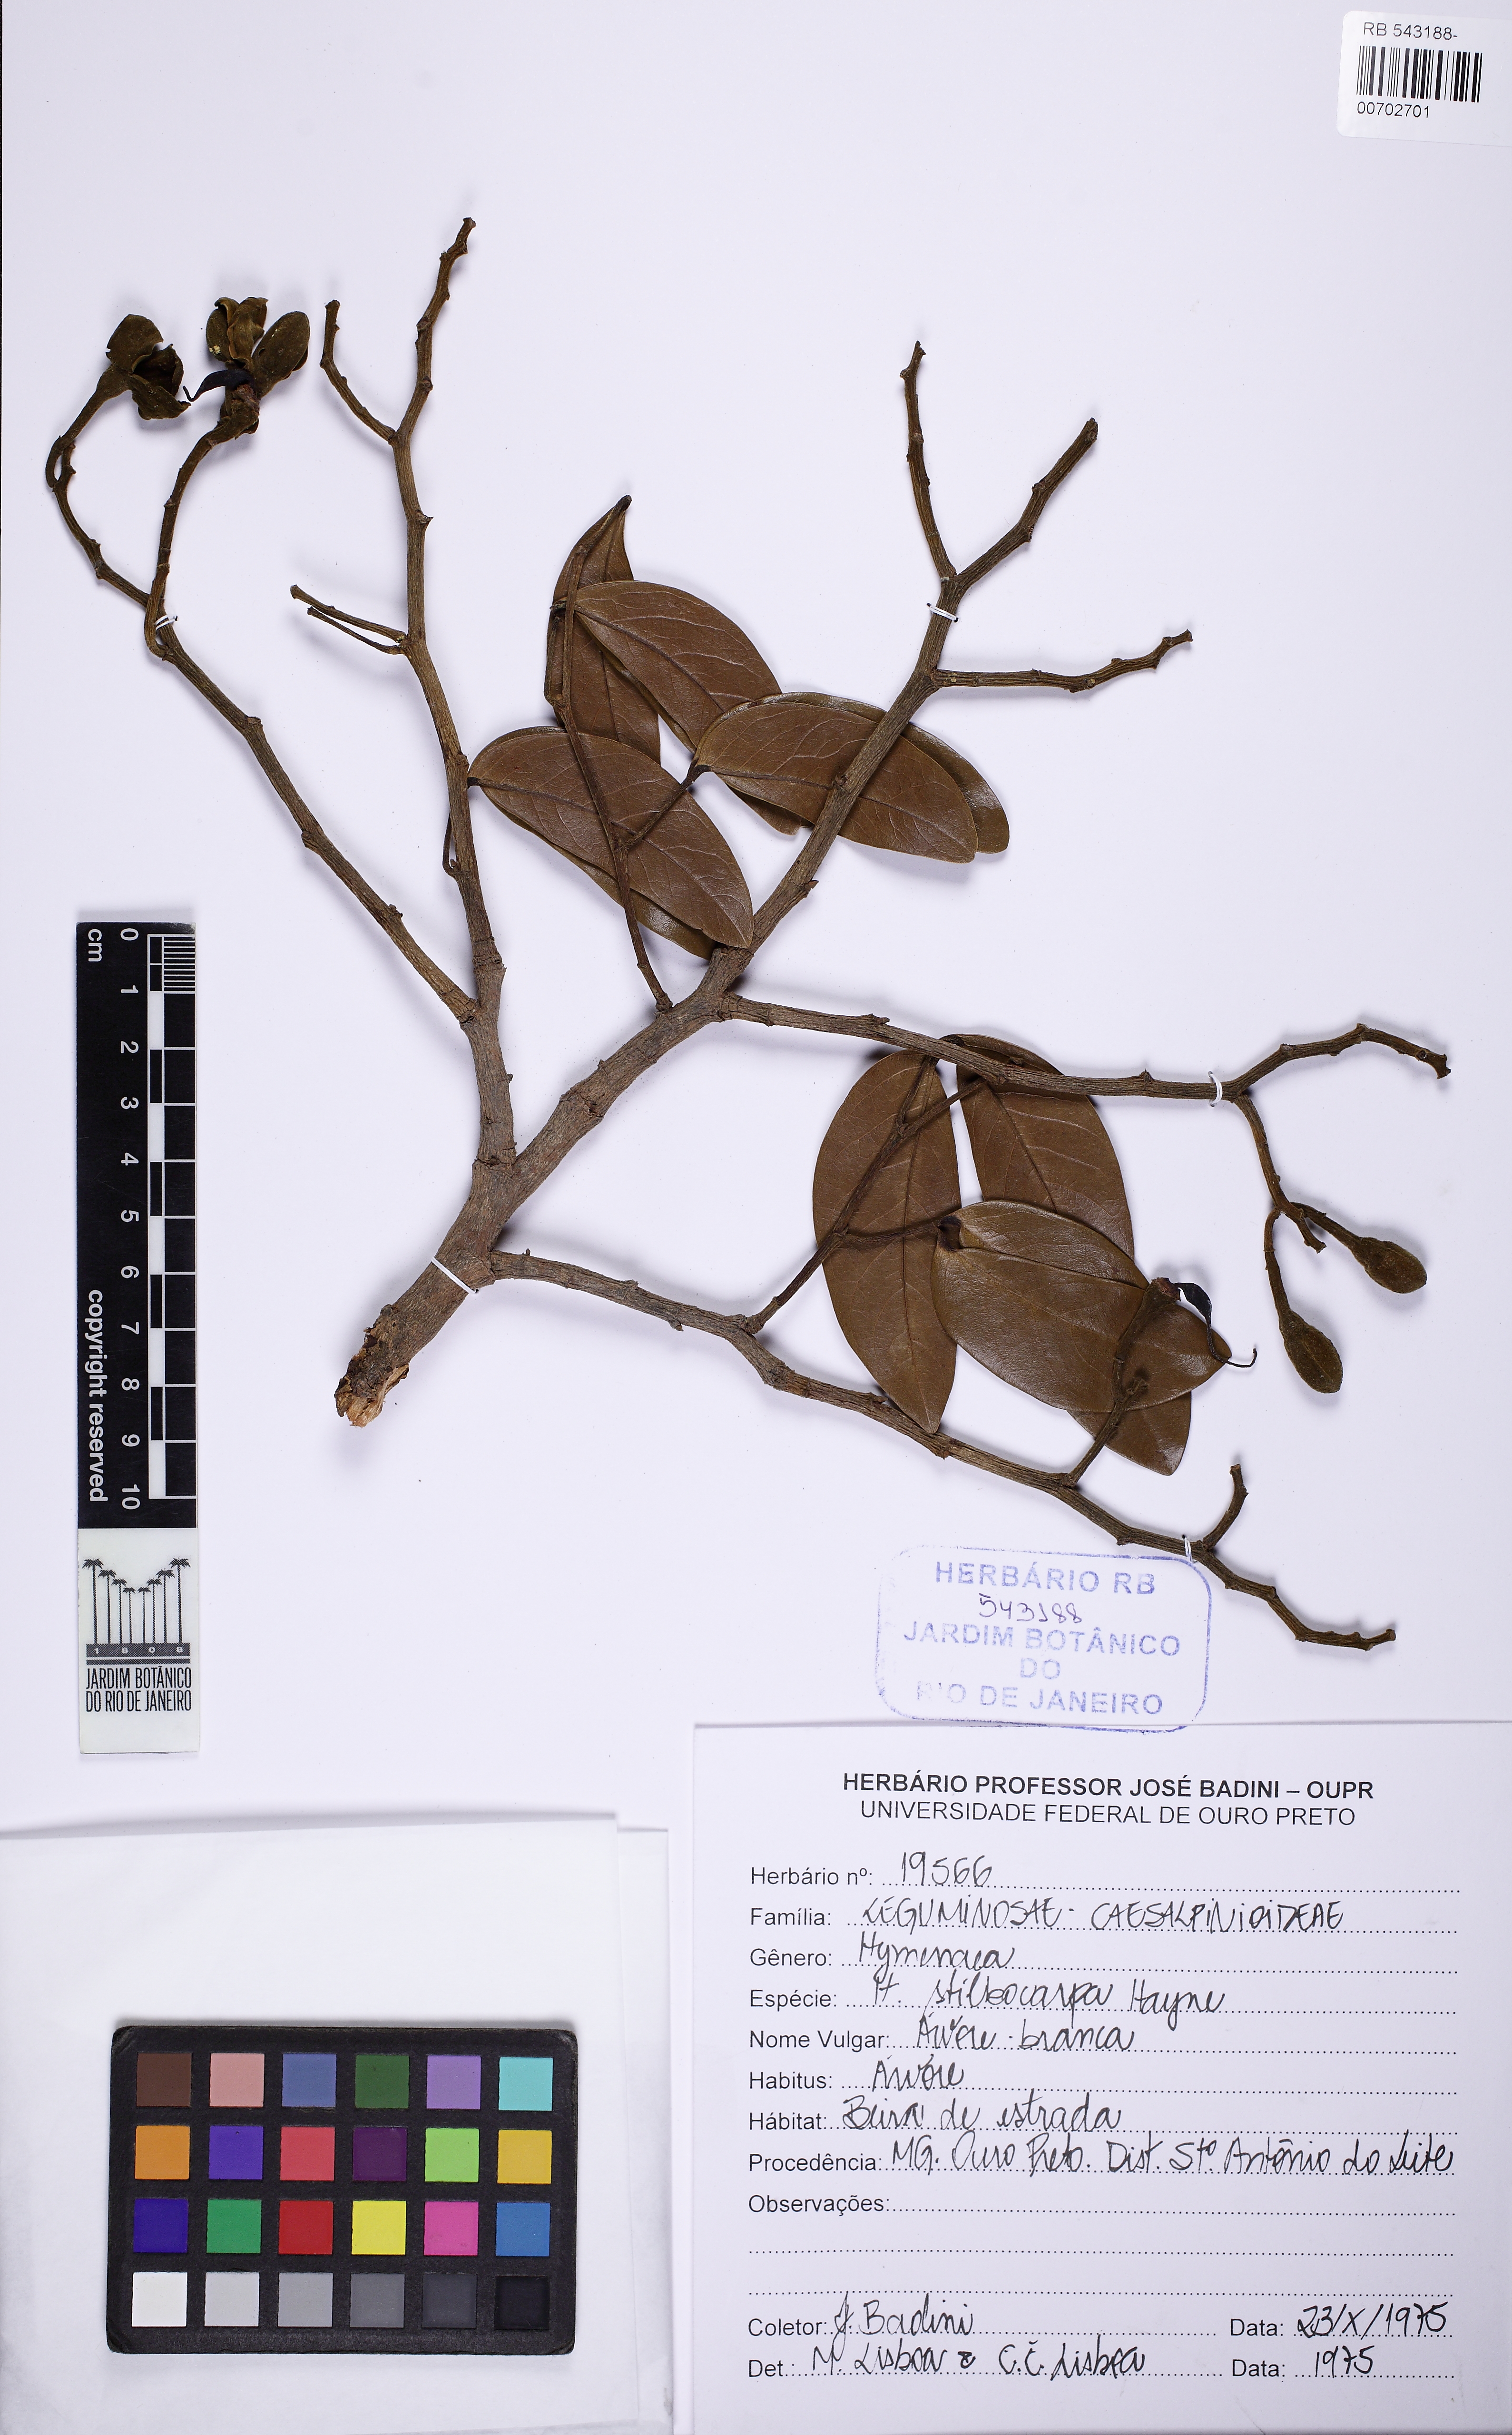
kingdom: Plantae
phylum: Tracheophyta
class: Magnoliopsida
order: Fabales
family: Fabaceae
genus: Hymenaea
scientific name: Hymenaea stigonocarpa
